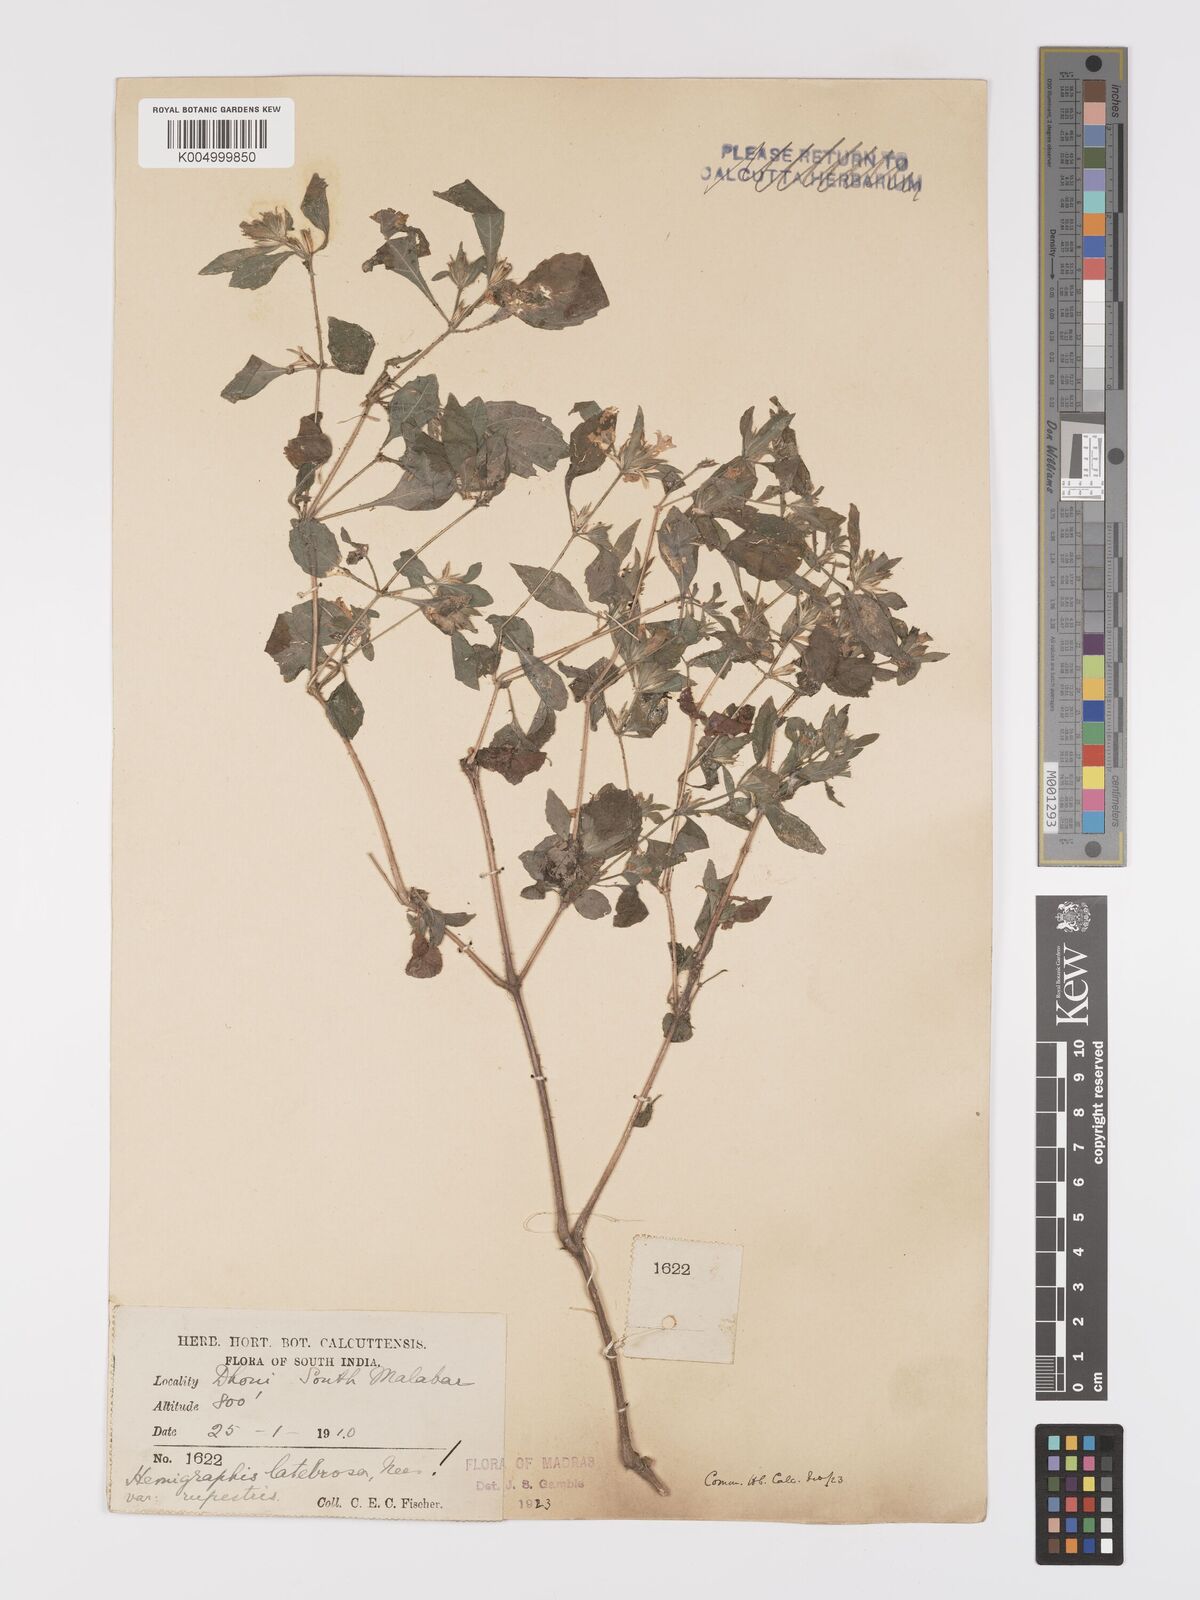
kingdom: Plantae
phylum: Tracheophyta
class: Magnoliopsida
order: Lamiales
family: Acanthaceae
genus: Strobilanthes
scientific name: Strobilanthes pavala
